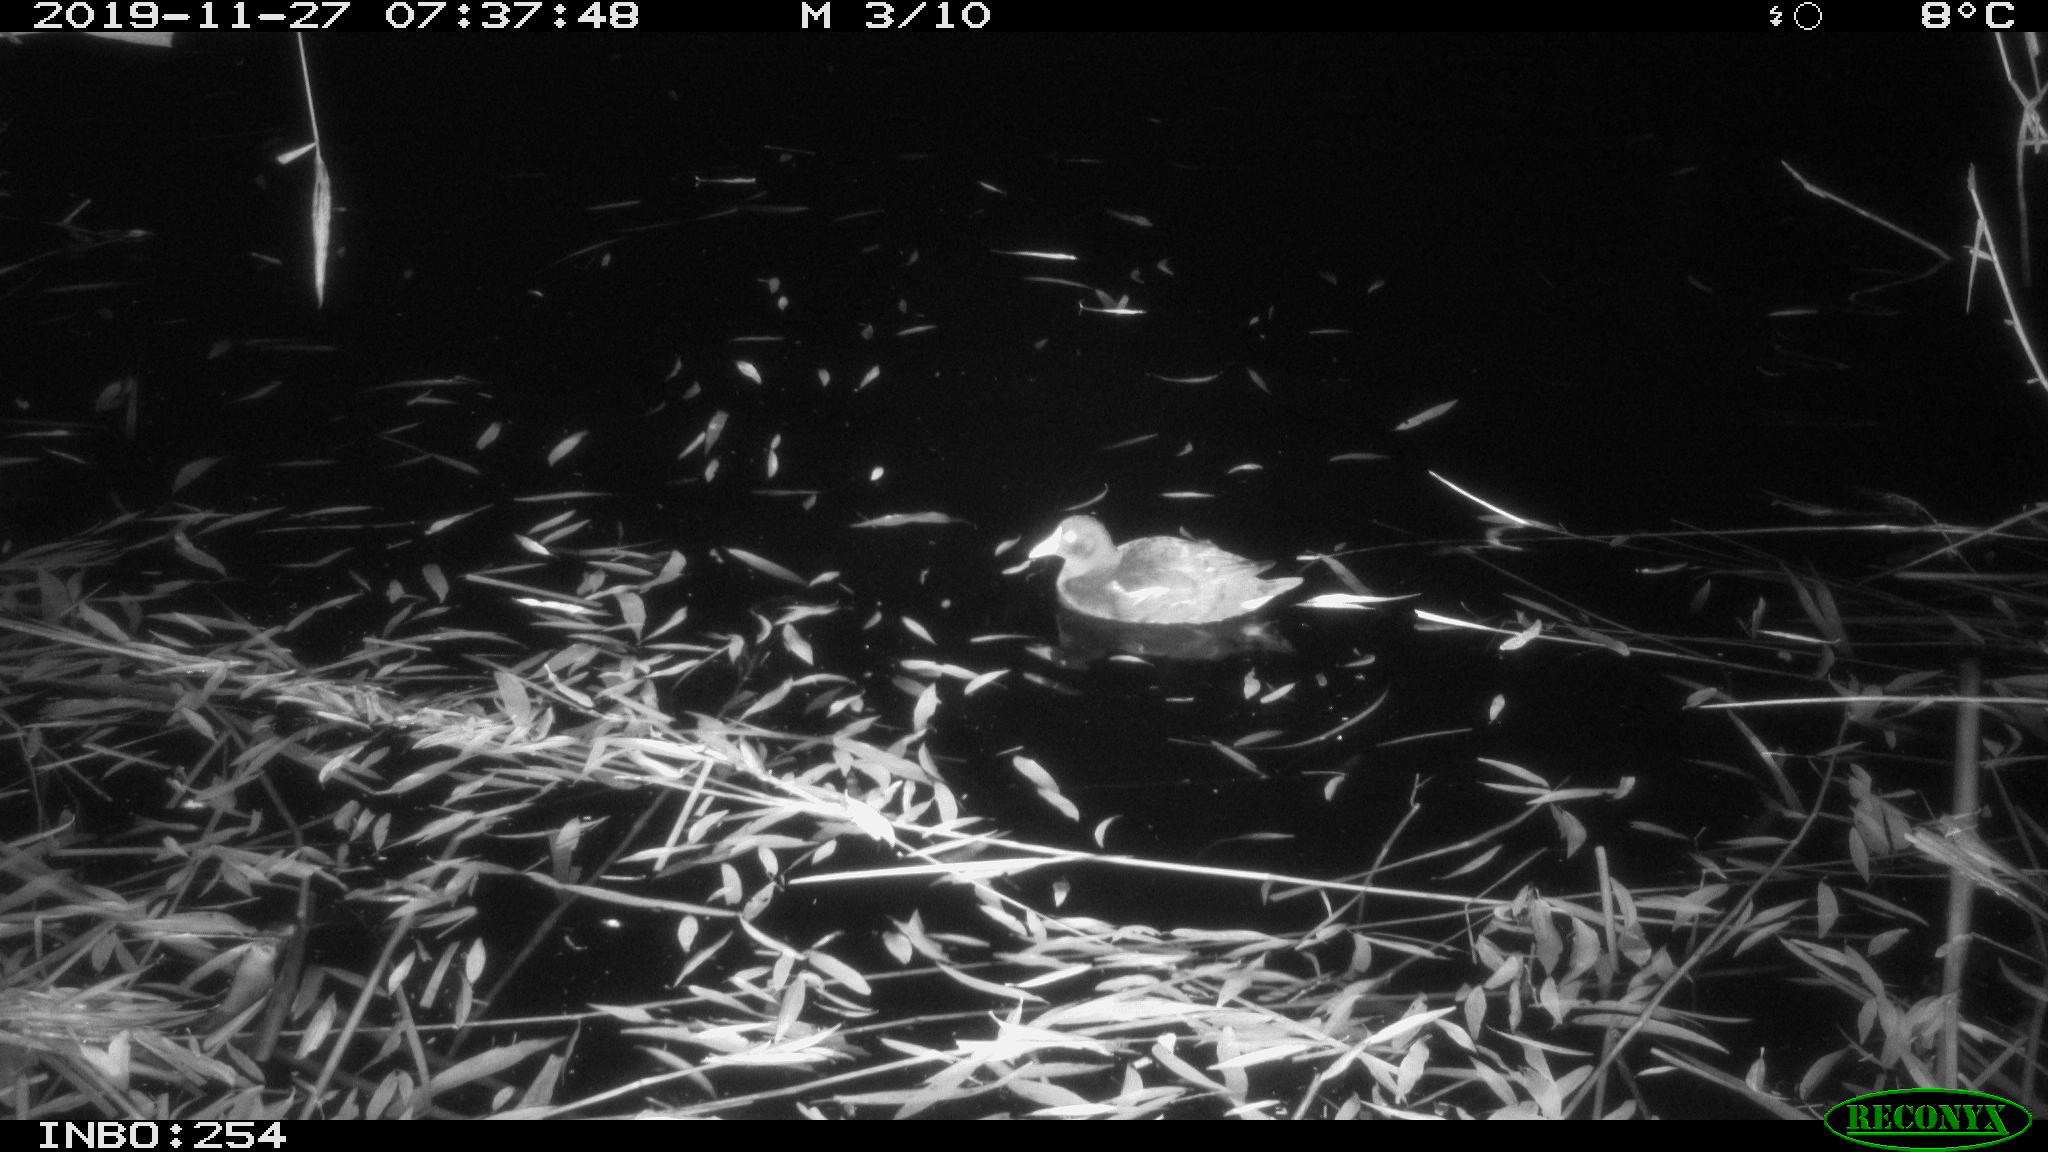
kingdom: Animalia
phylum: Chordata
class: Aves
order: Gruiformes
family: Rallidae
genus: Gallinula
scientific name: Gallinula chloropus
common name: Common moorhen
